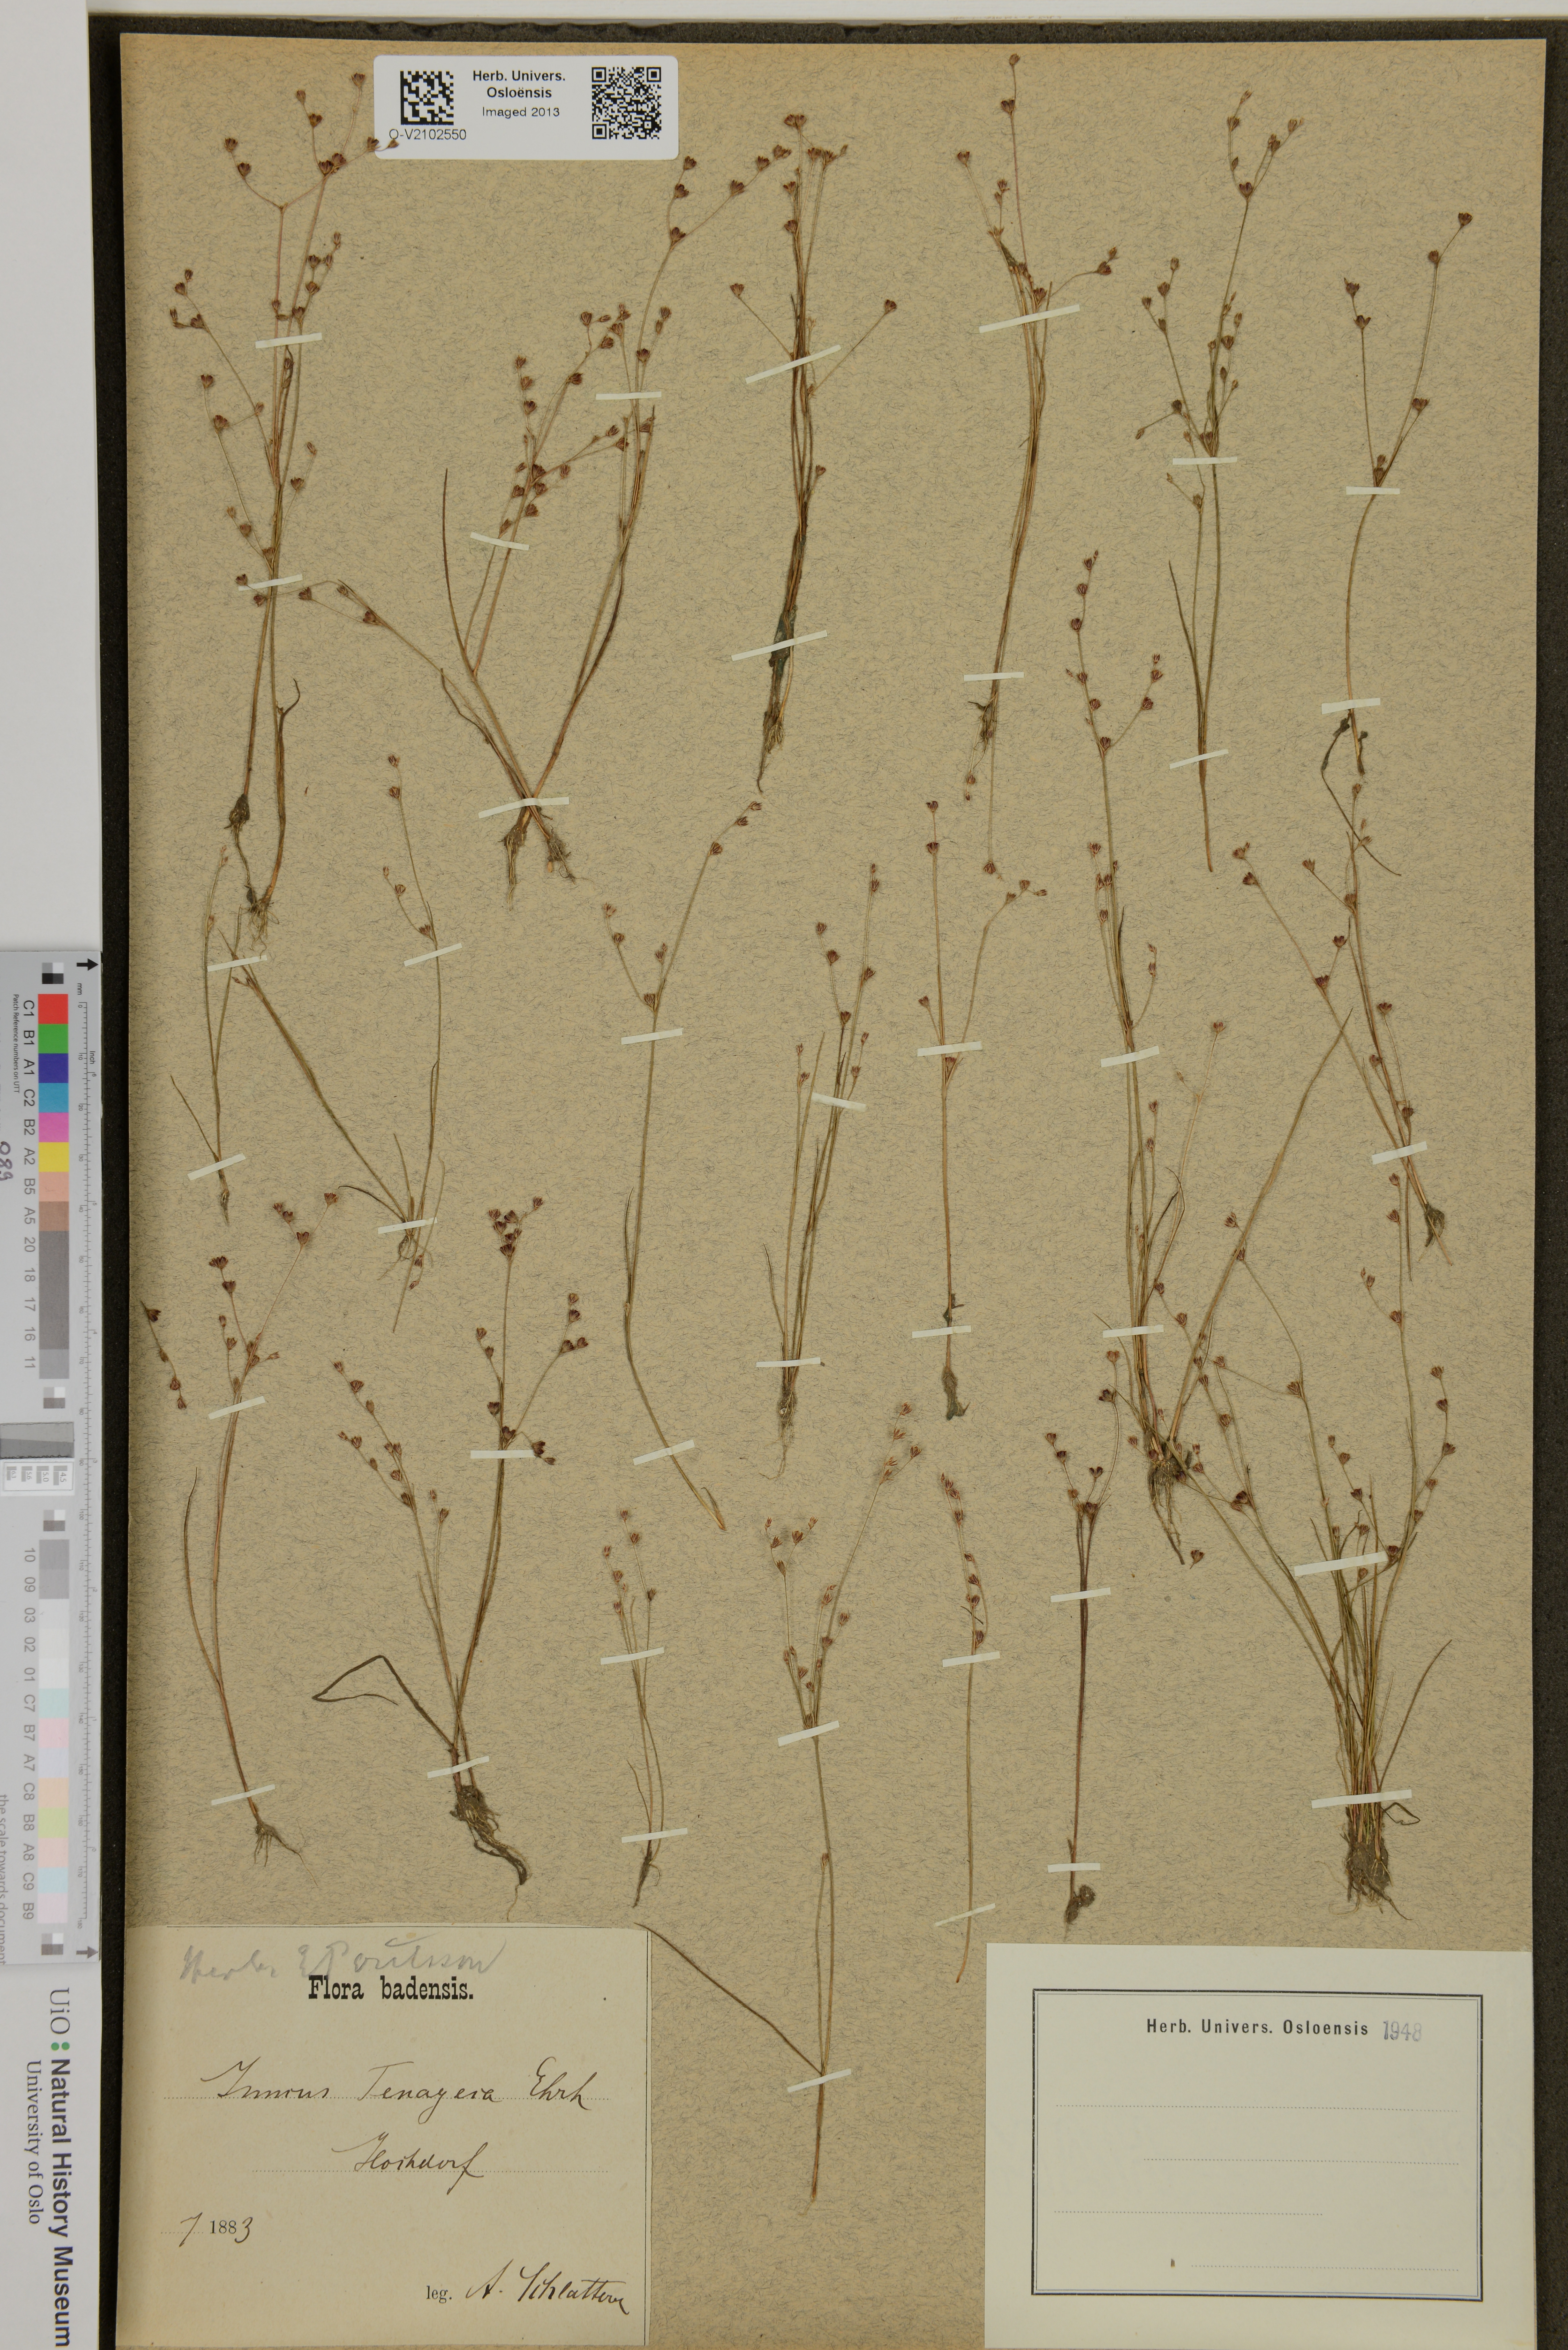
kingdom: Plantae
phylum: Tracheophyta
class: Liliopsida
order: Poales
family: Juncaceae
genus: Juncus
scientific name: Juncus tenageia
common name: Sand rush
